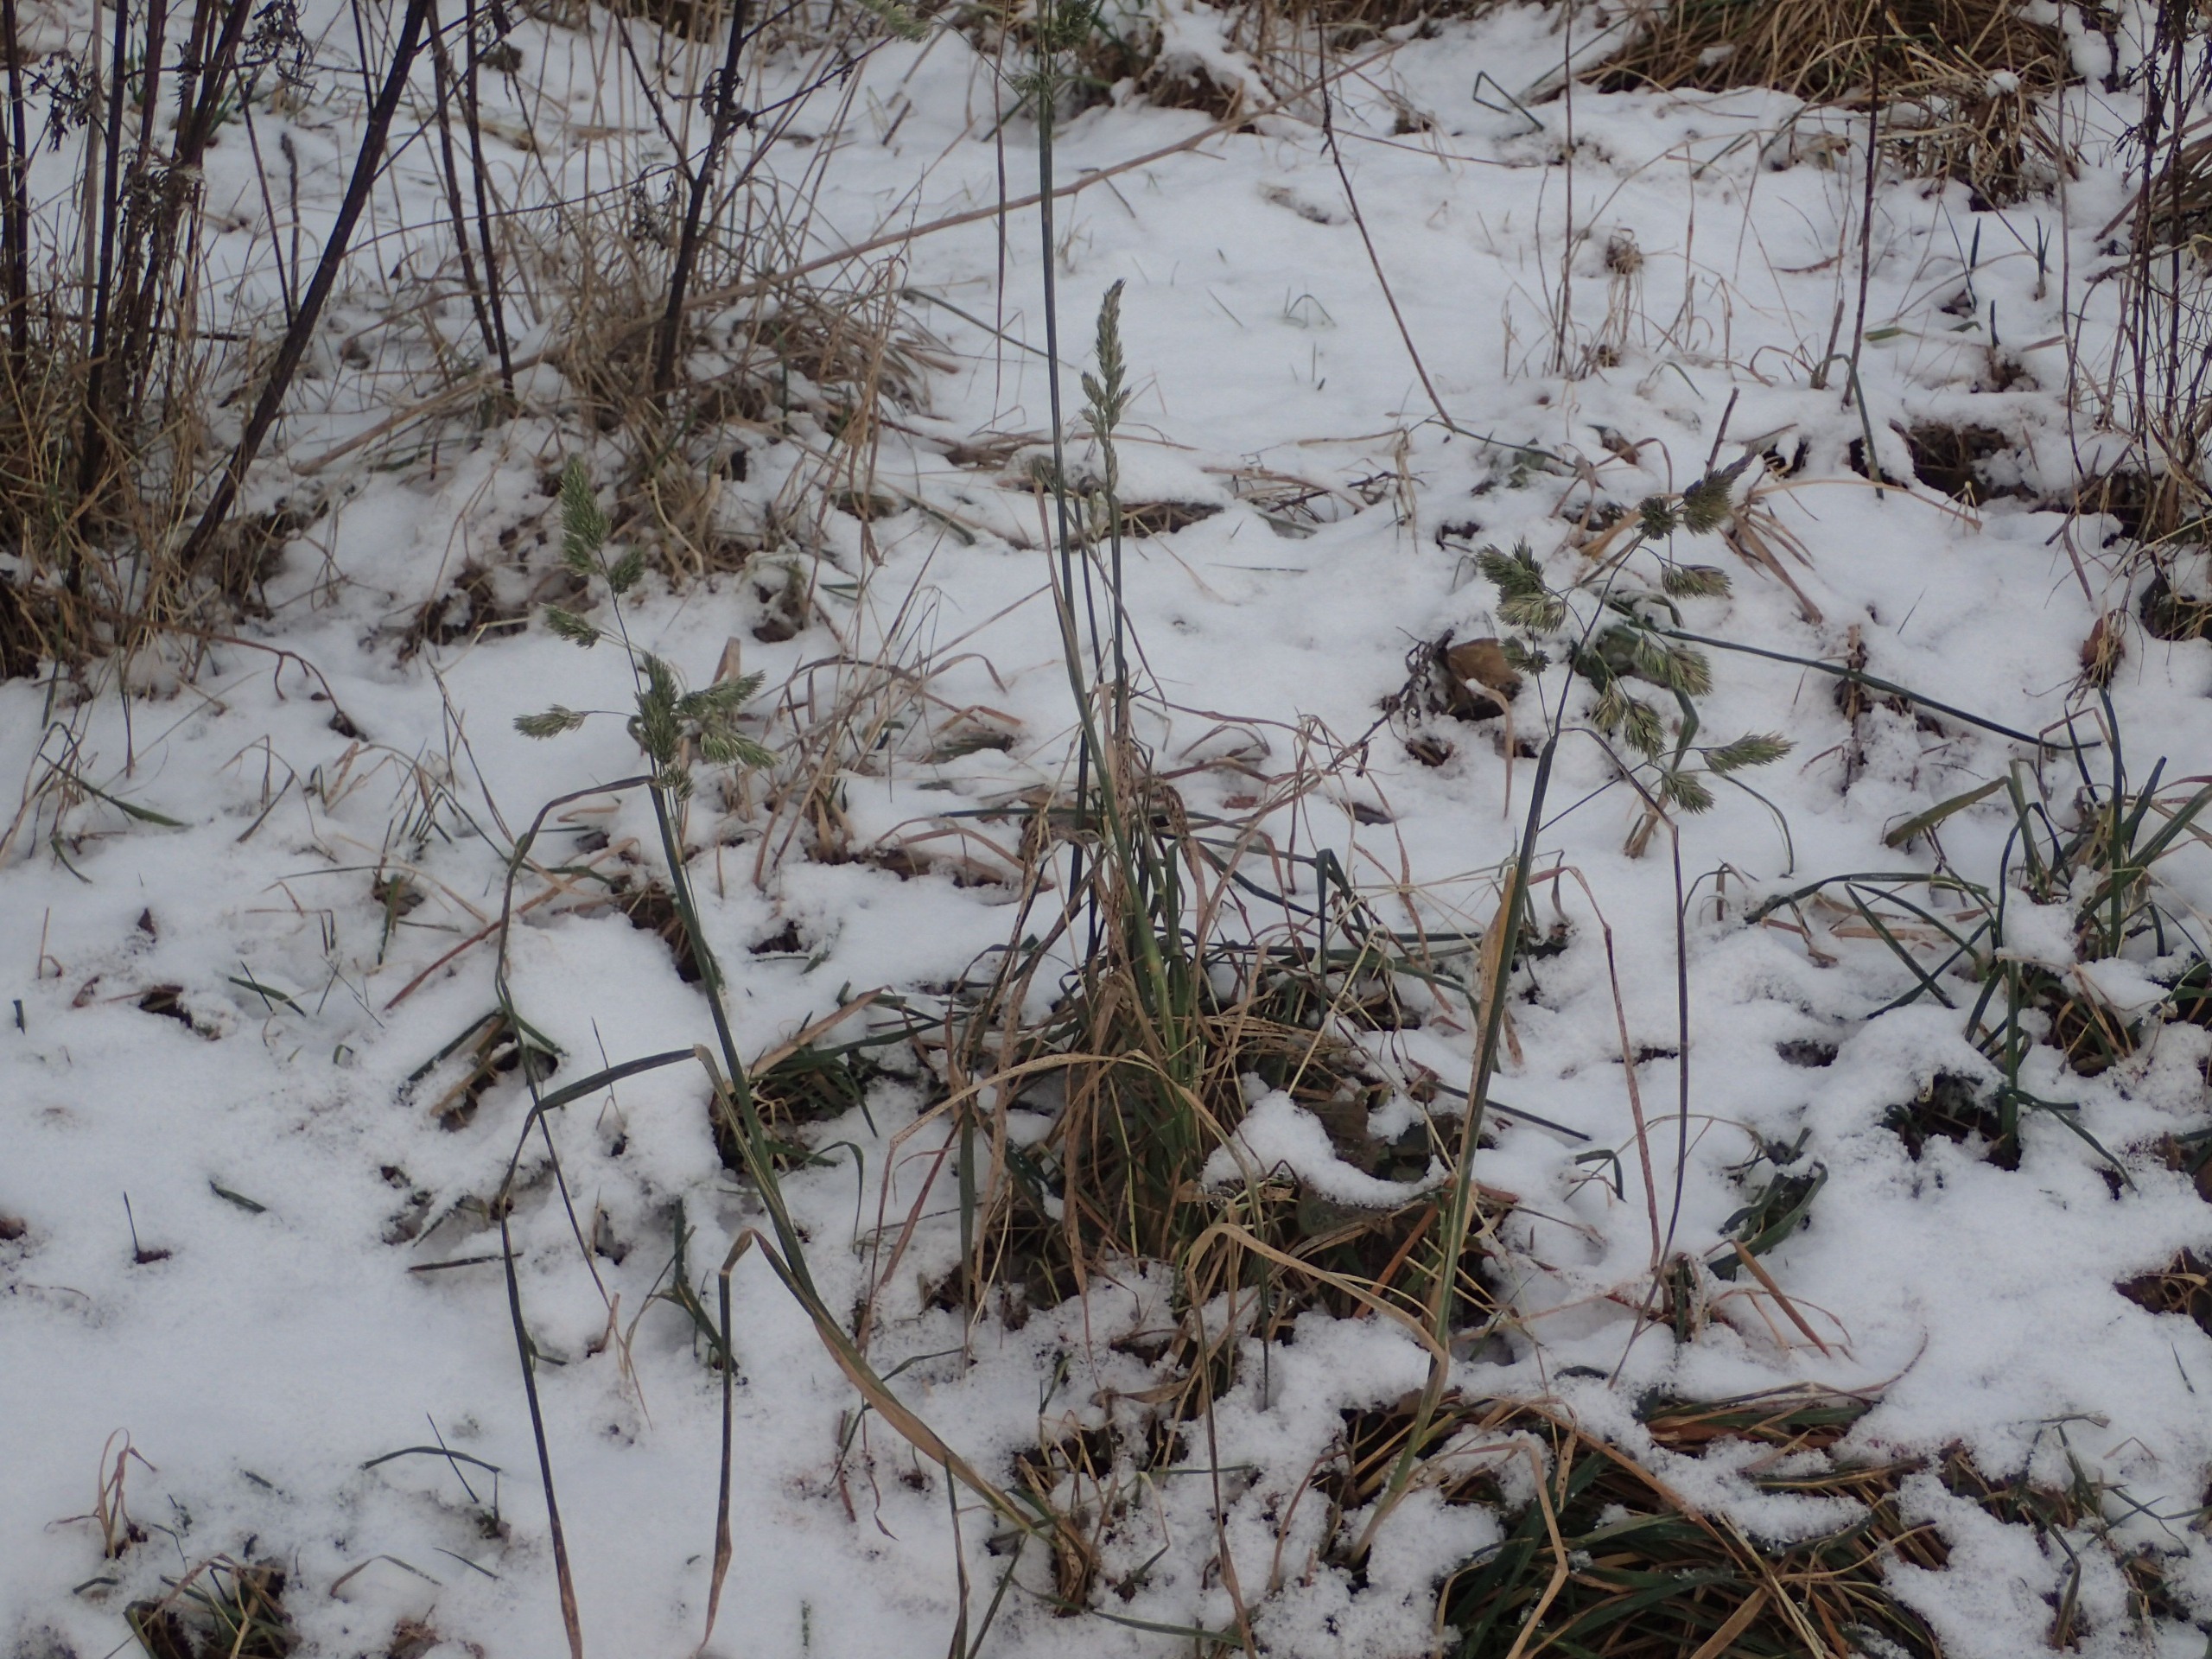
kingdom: Plantae
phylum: Tracheophyta
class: Liliopsida
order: Poales
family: Poaceae
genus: Dactylis
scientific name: Dactylis glomerata
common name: Almindelig hundegræs
